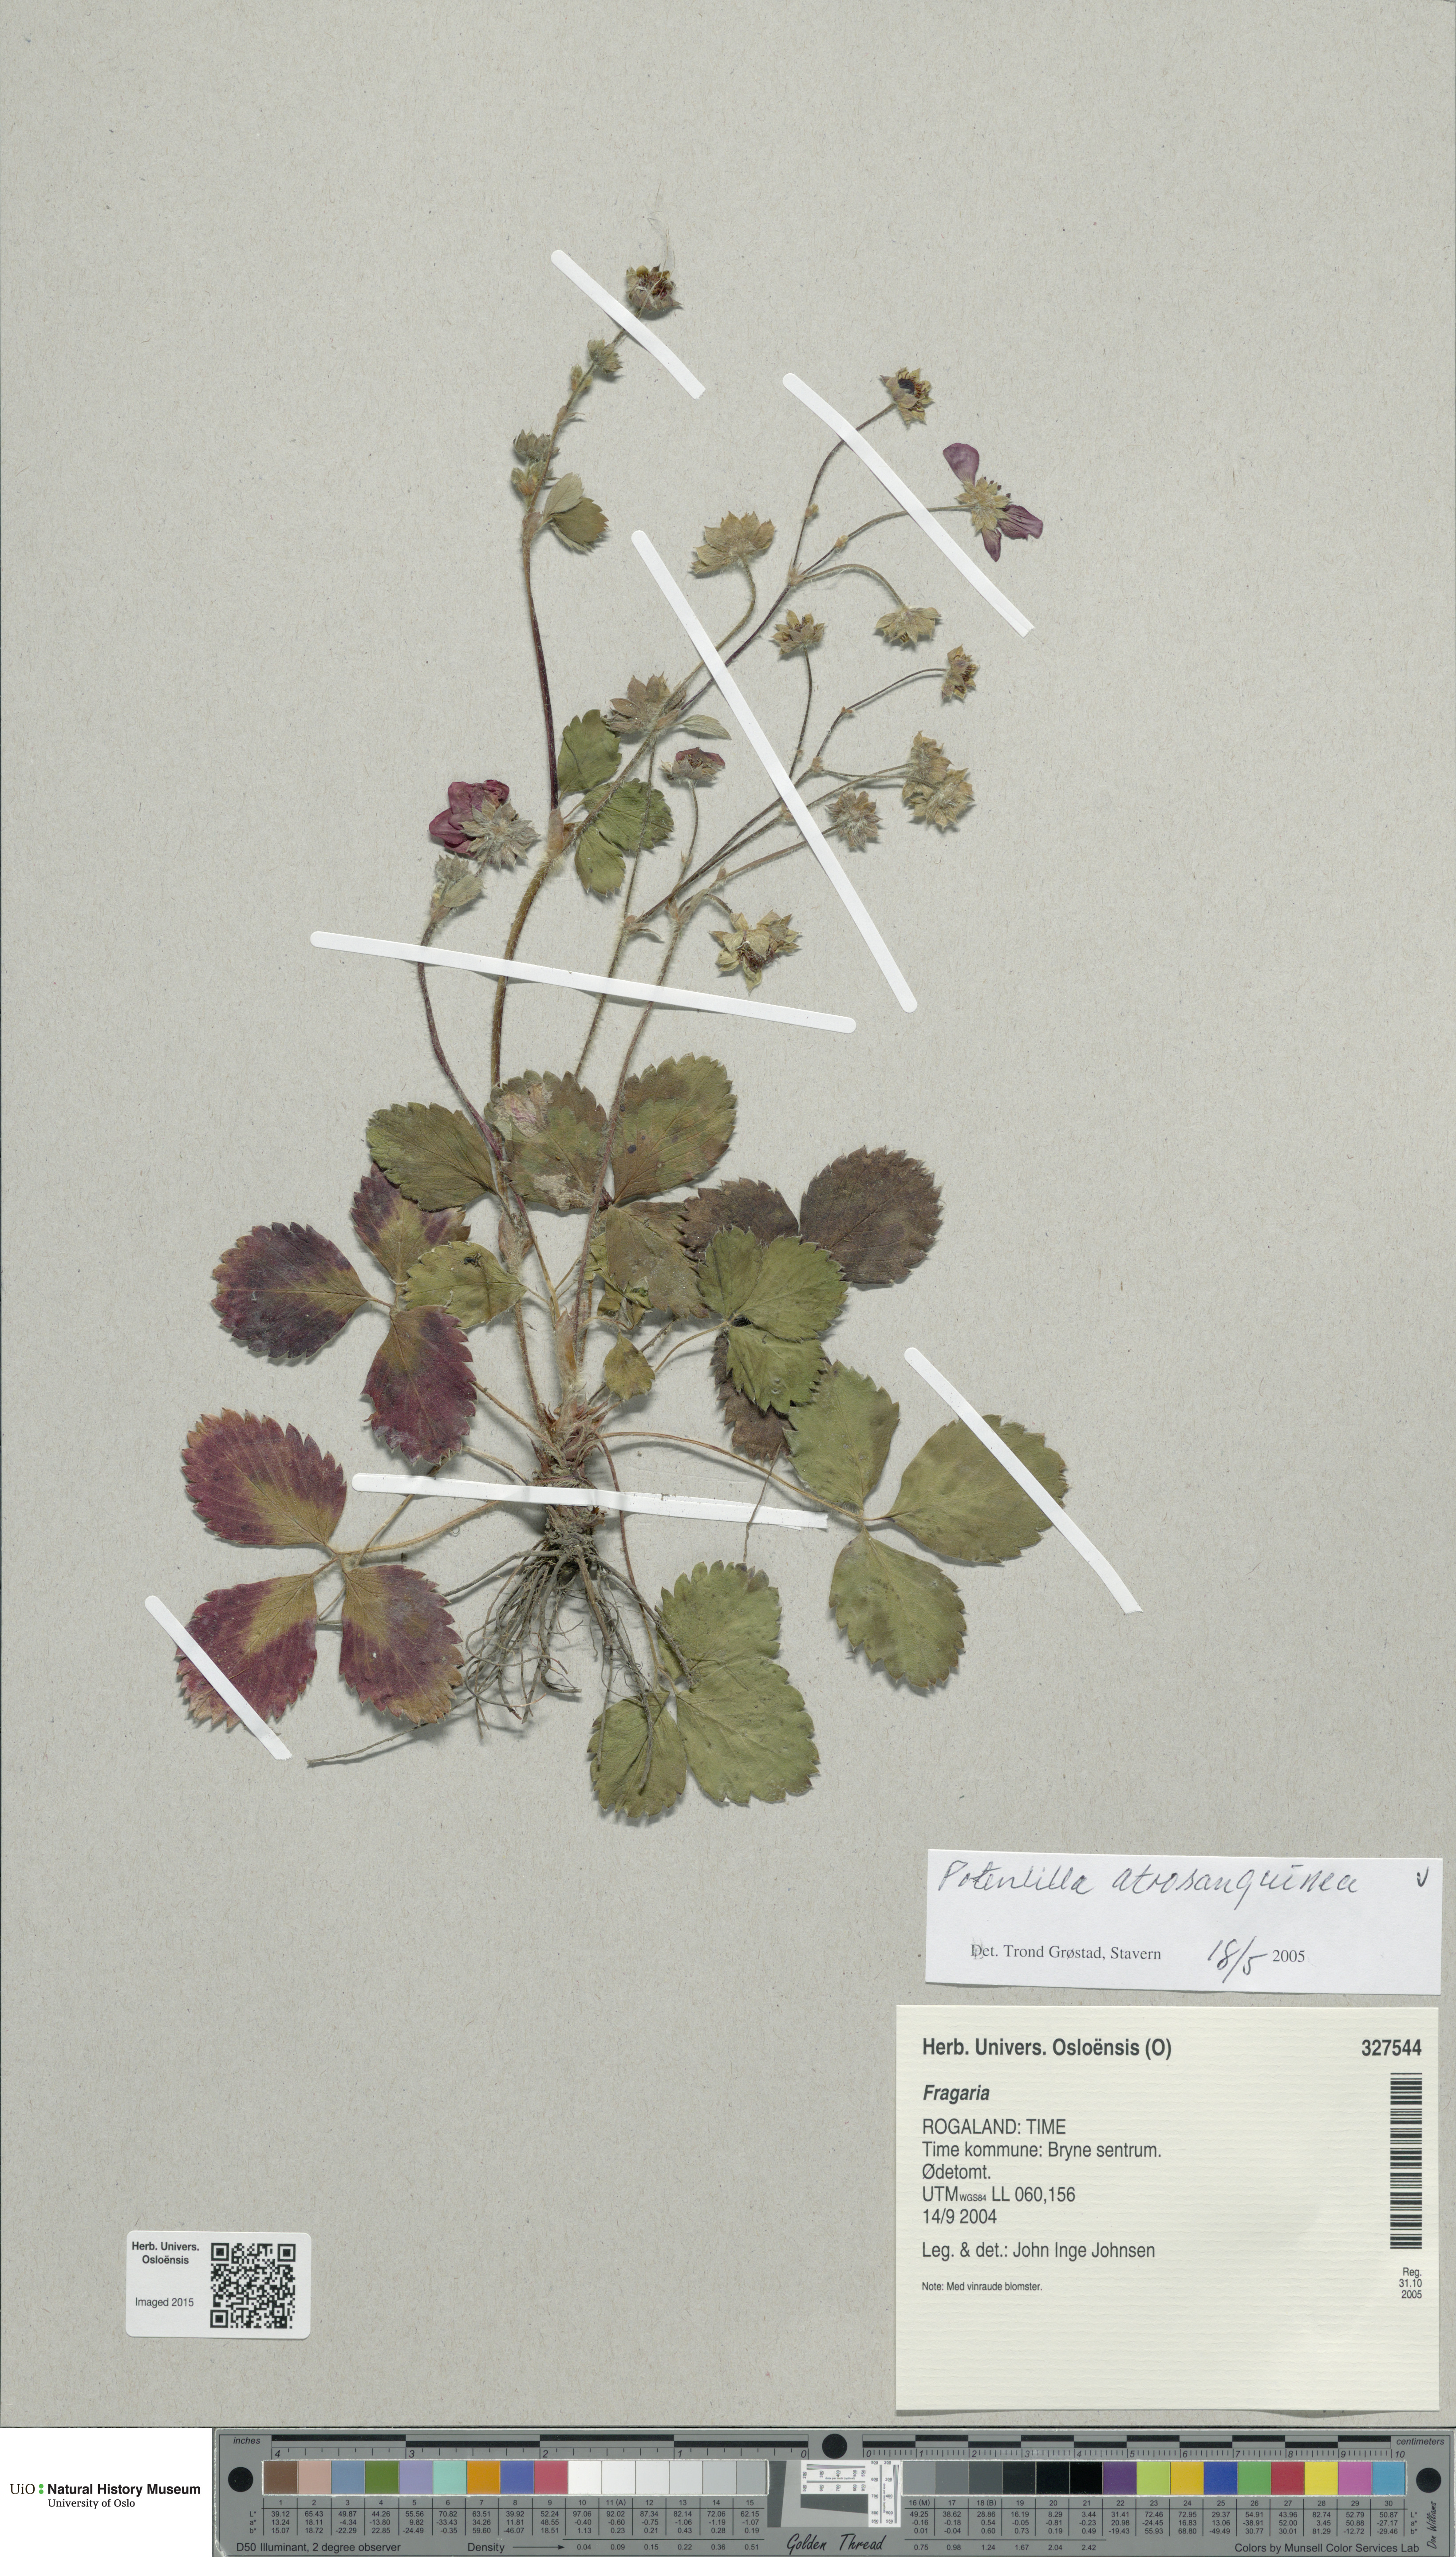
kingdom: Plantae
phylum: Tracheophyta
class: Magnoliopsida
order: Rosales
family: Rosaceae
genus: Potentilla
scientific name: Potentilla argyrophylla
